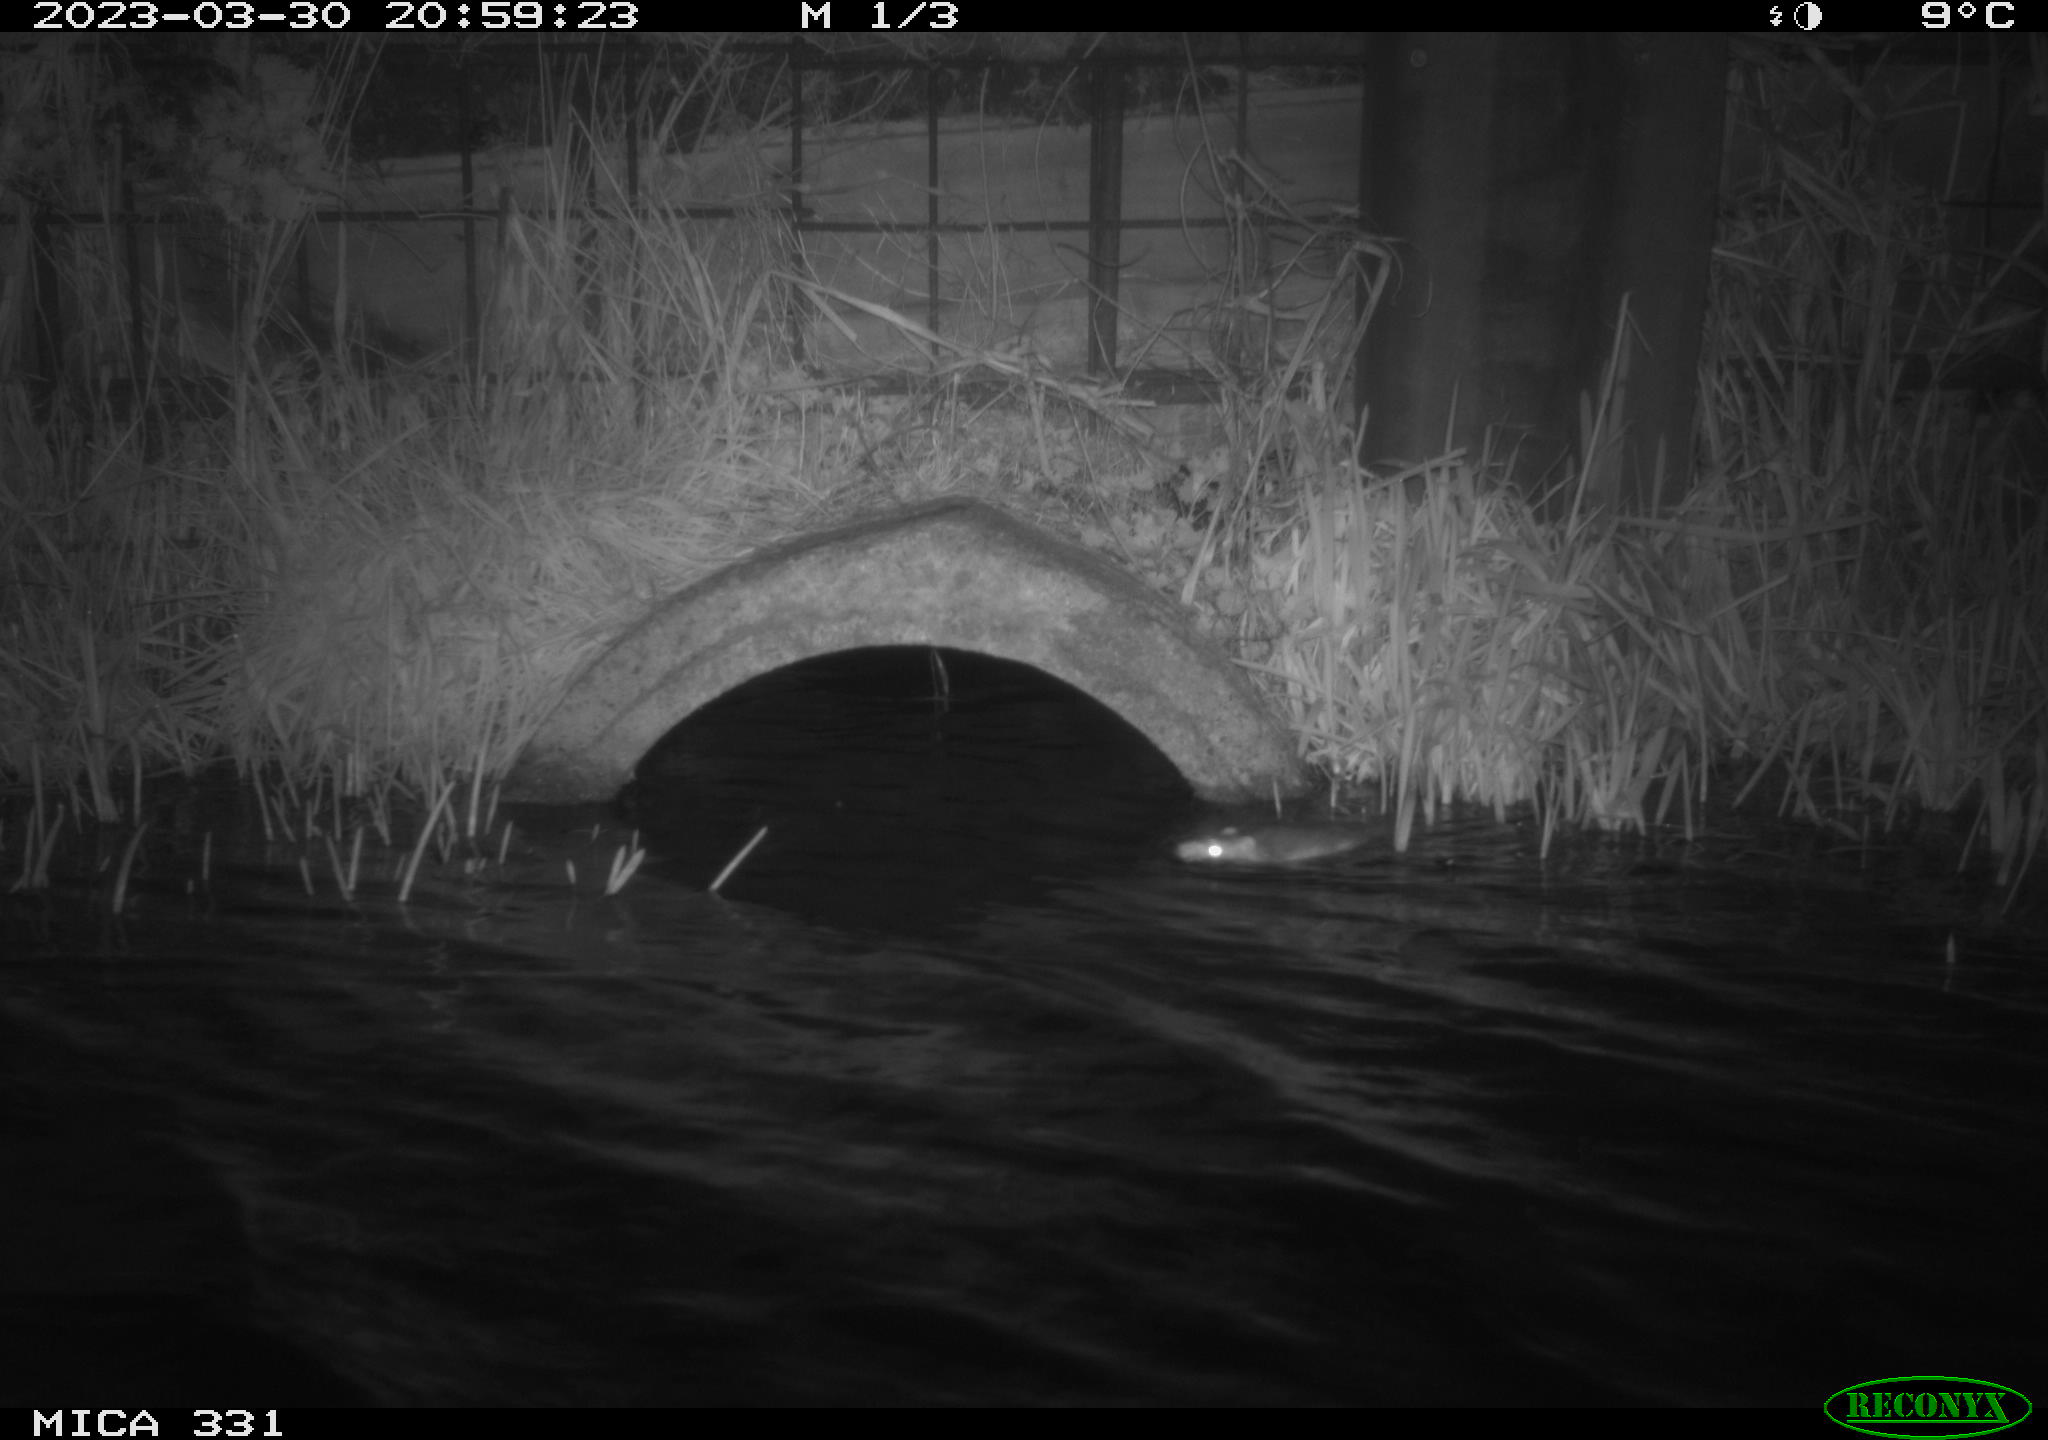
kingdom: Animalia
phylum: Chordata
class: Mammalia
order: Rodentia
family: Muridae
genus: Rattus
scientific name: Rattus norvegicus
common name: Brown rat
